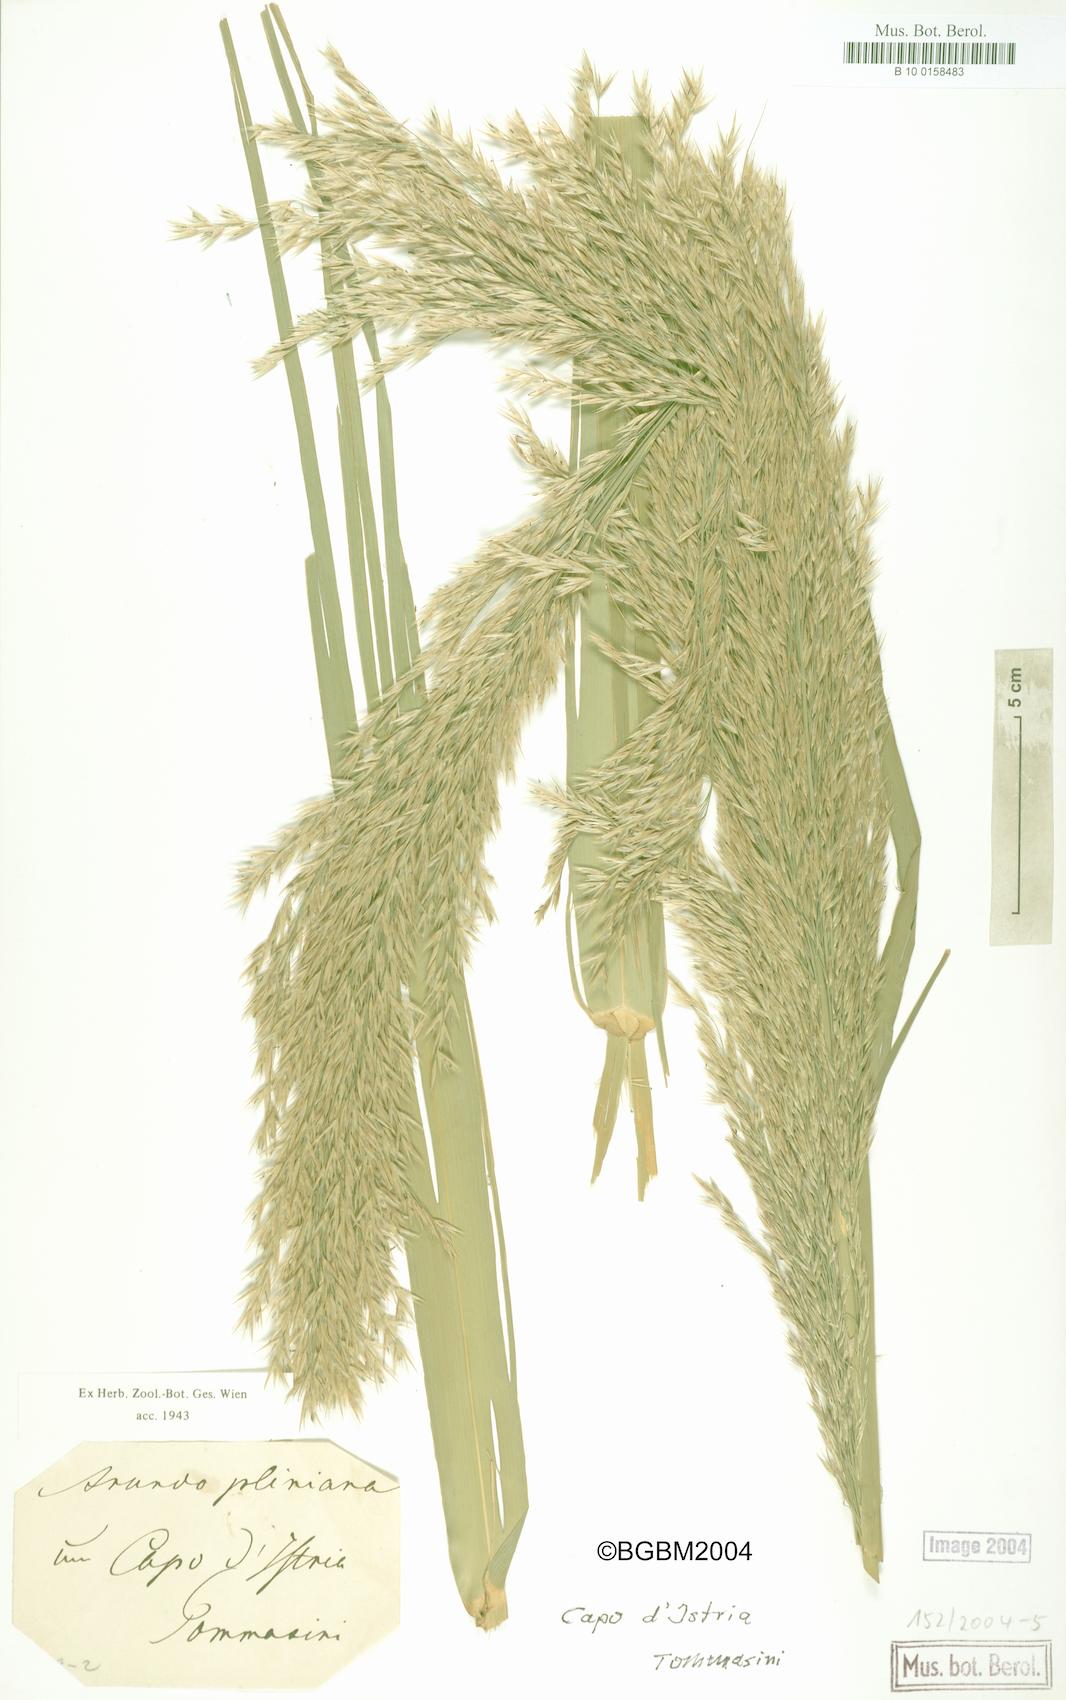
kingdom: Plantae
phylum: Tracheophyta
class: Liliopsida
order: Poales
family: Poaceae
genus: Arundo
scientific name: Arundo plinii
